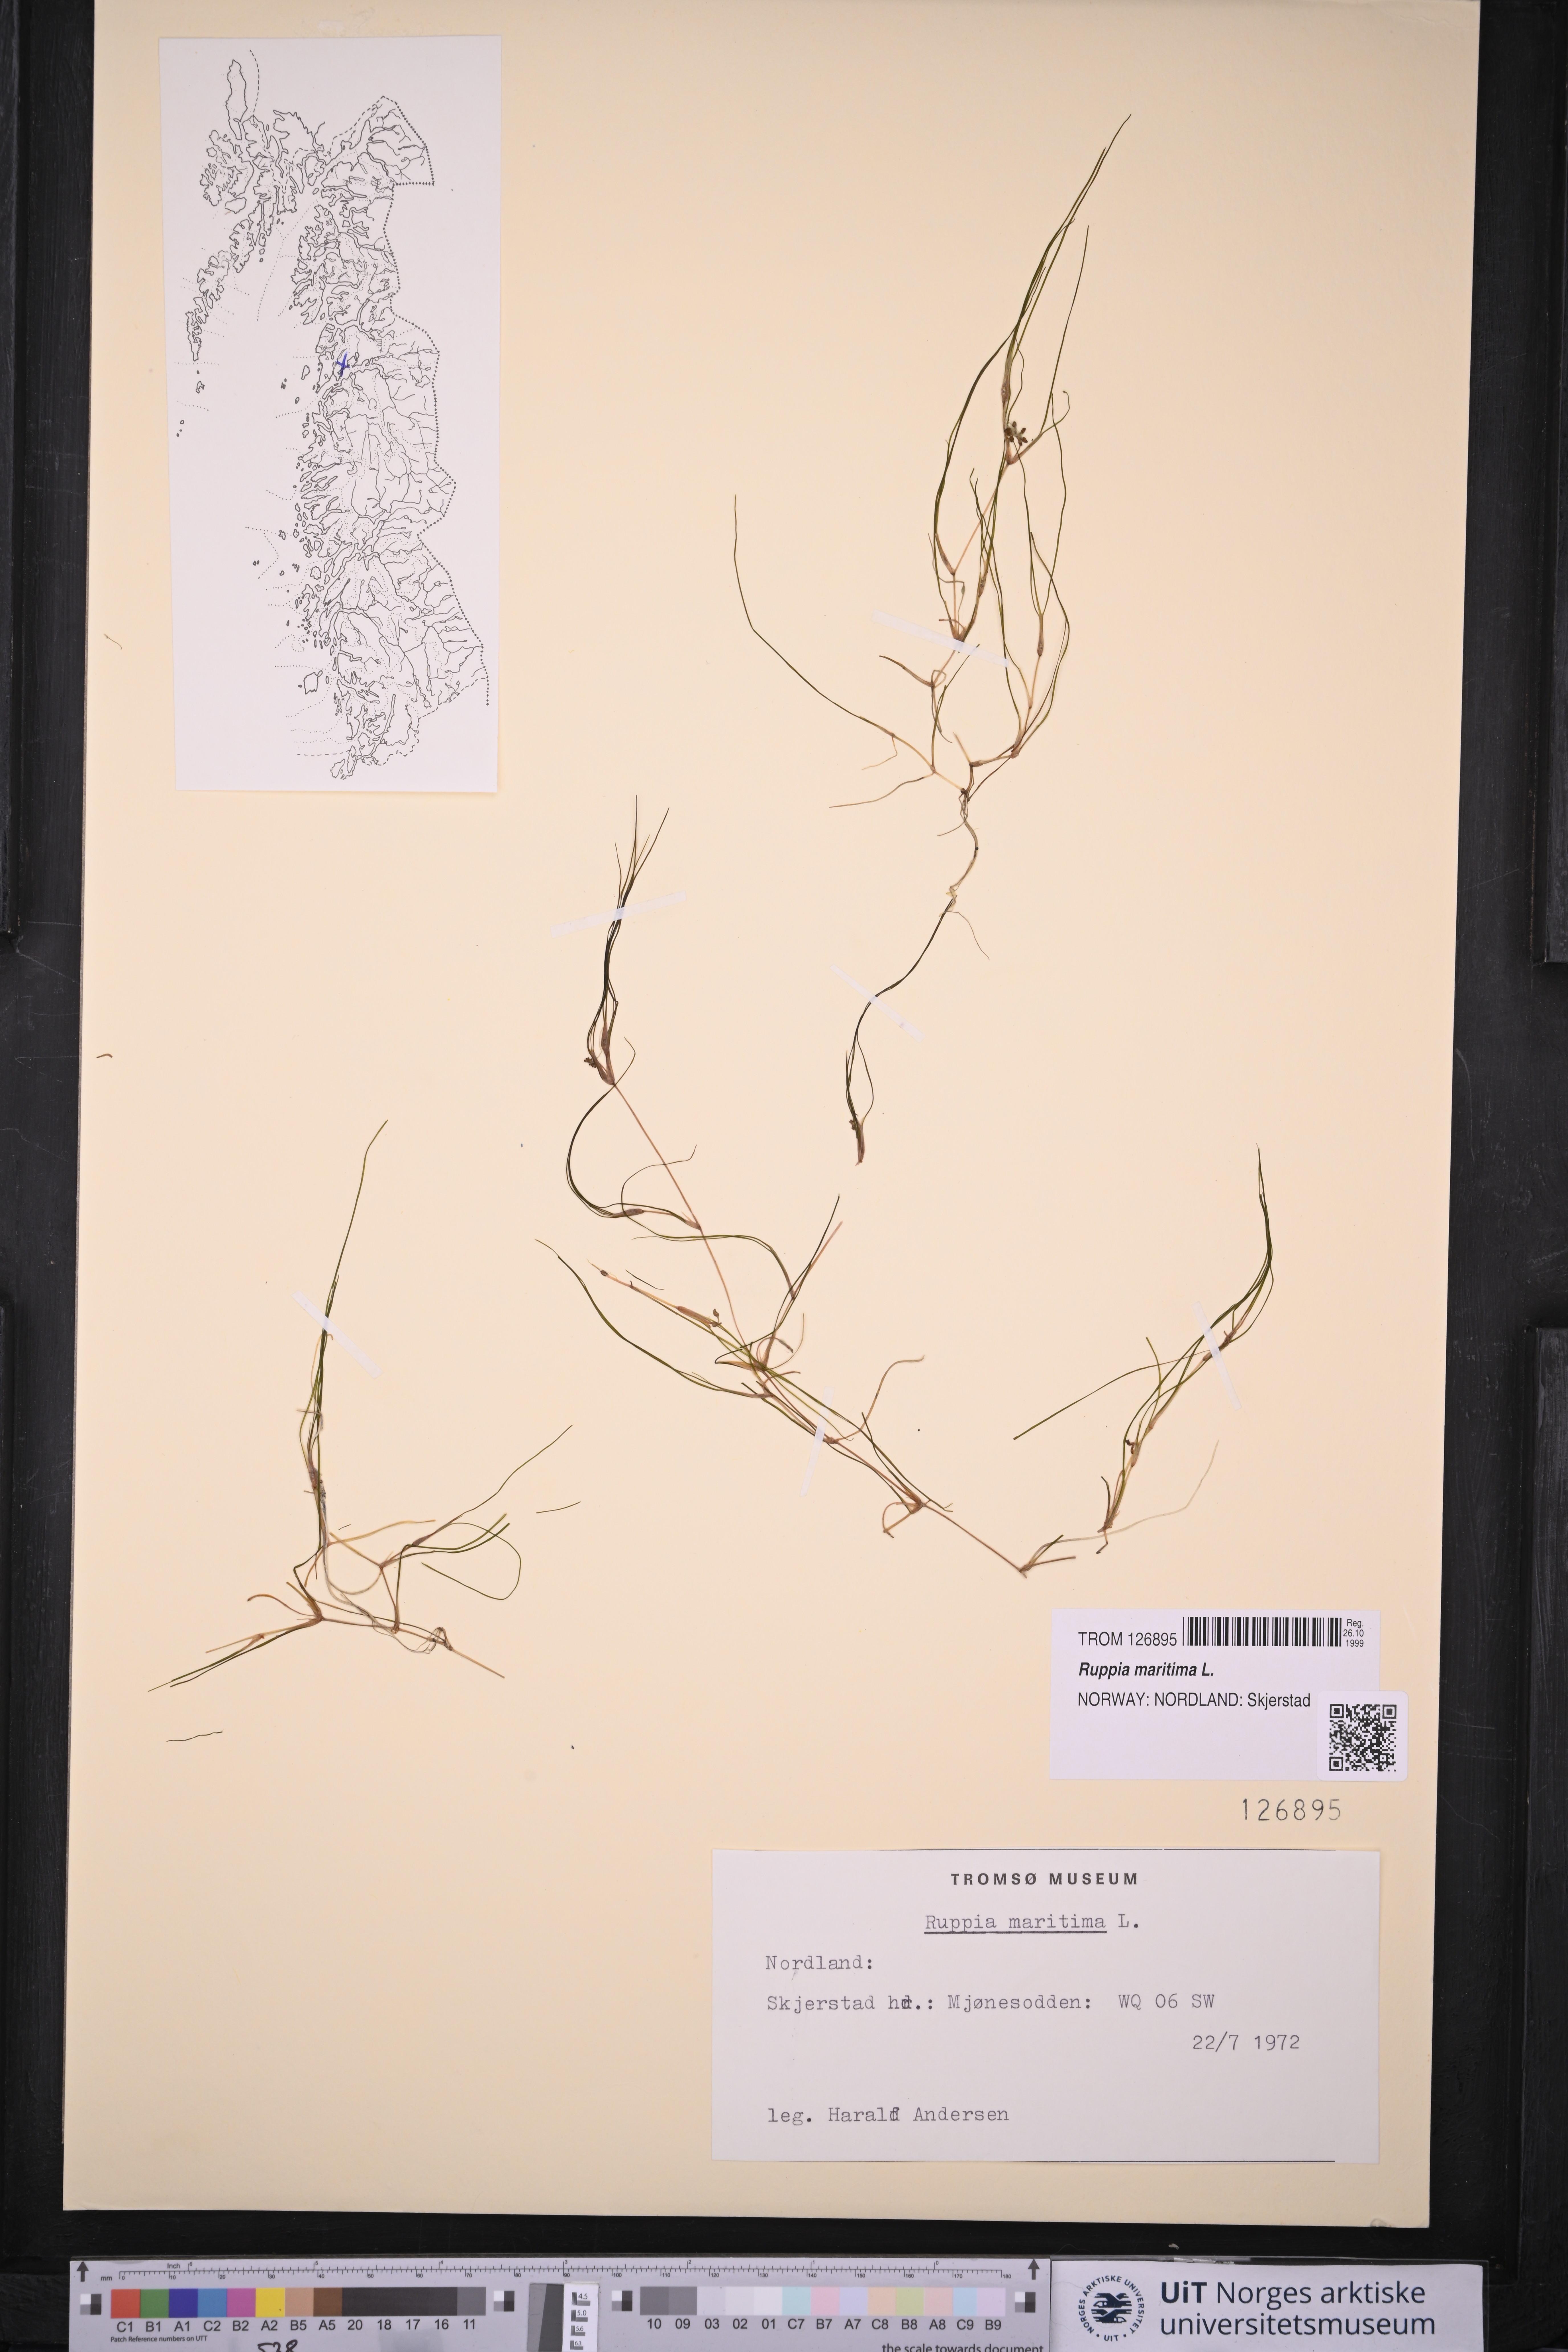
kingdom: Plantae
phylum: Tracheophyta
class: Liliopsida
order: Alismatales
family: Ruppiaceae
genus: Ruppia
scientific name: Ruppia maritima
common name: Beaked tasselweed
